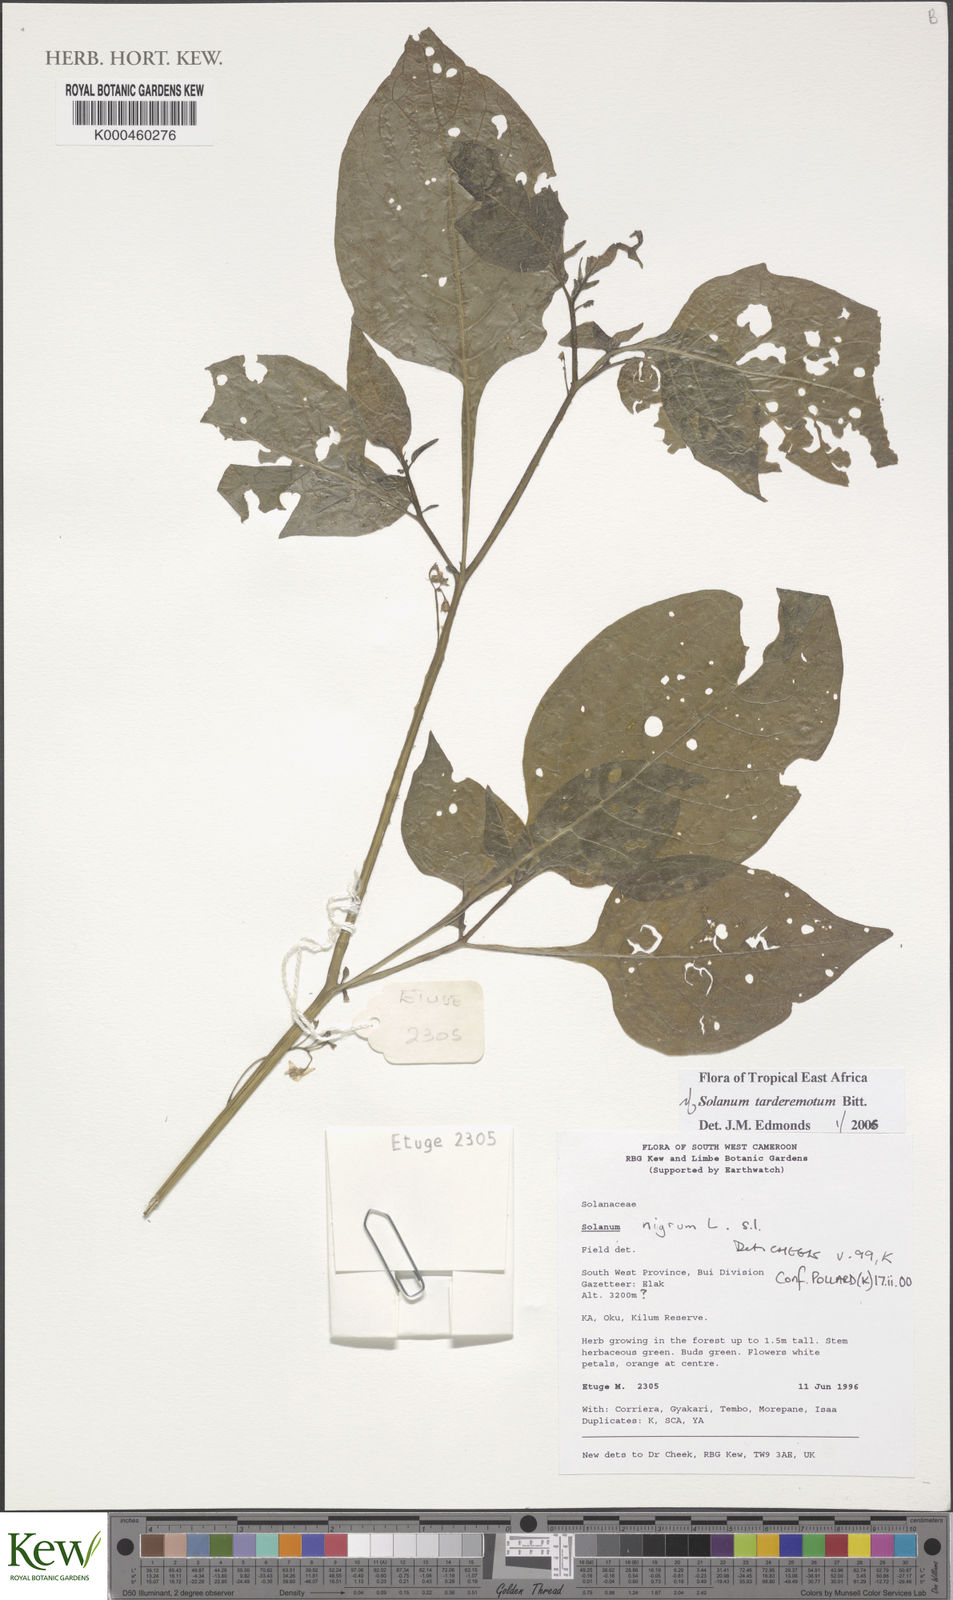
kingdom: Plantae
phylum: Tracheophyta
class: Magnoliopsida
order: Solanales
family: Solanaceae
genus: Solanum
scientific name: Solanum tarderemotum
